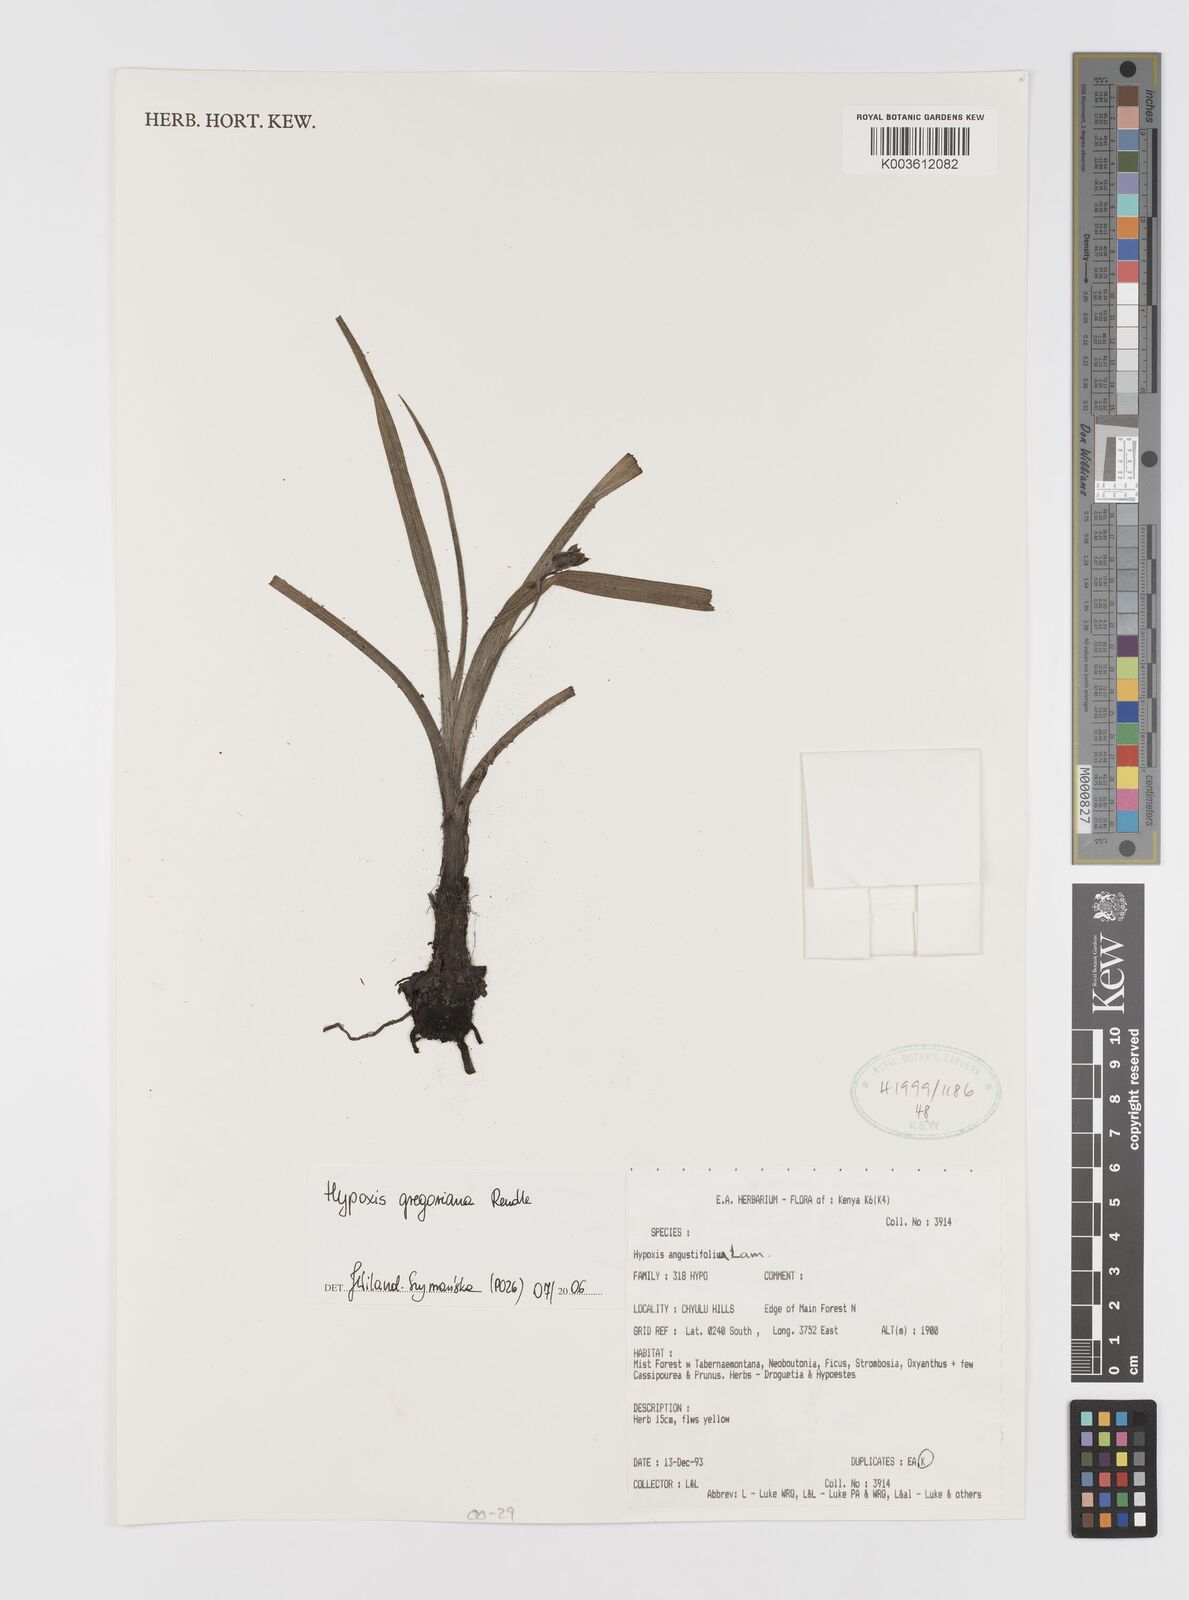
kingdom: Plantae
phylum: Tracheophyta
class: Liliopsida
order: Asparagales
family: Hypoxidaceae
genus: Hypoxis
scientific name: Hypoxis gregoriana
